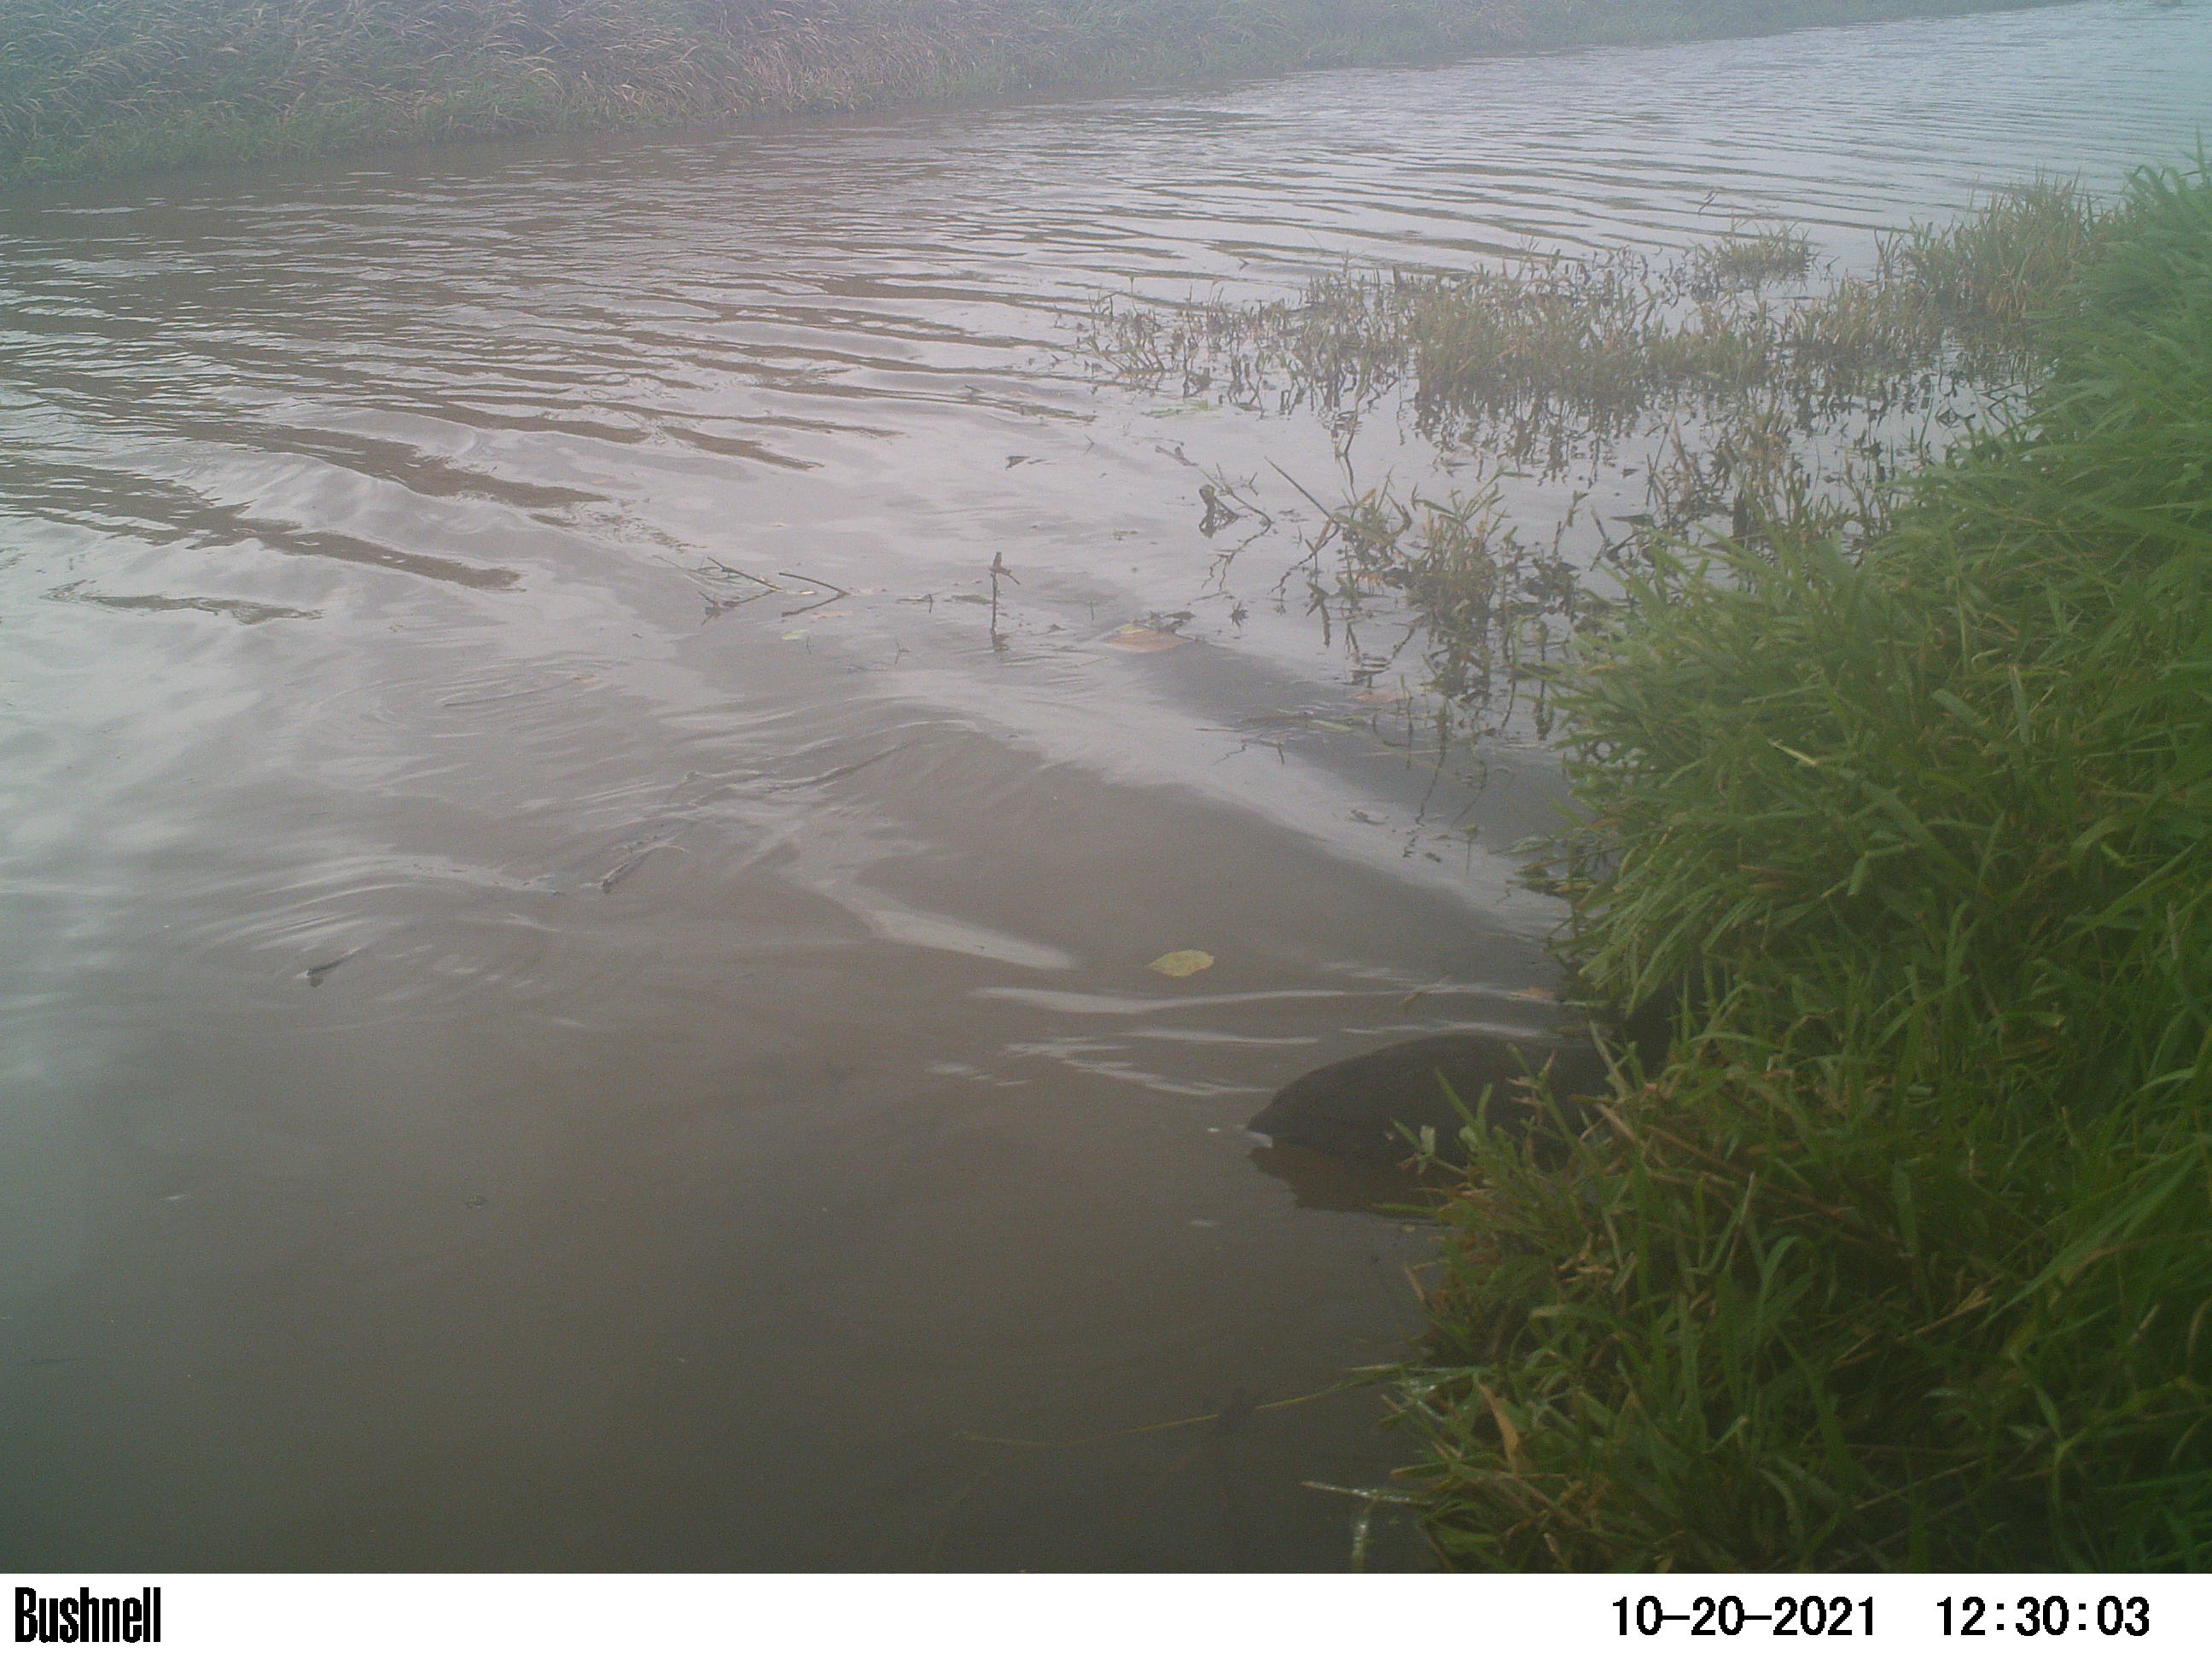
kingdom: Animalia
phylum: Chordata
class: Aves
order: Gruiformes
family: Rallidae
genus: Fulica
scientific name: Fulica atra
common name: Eurasian coot
